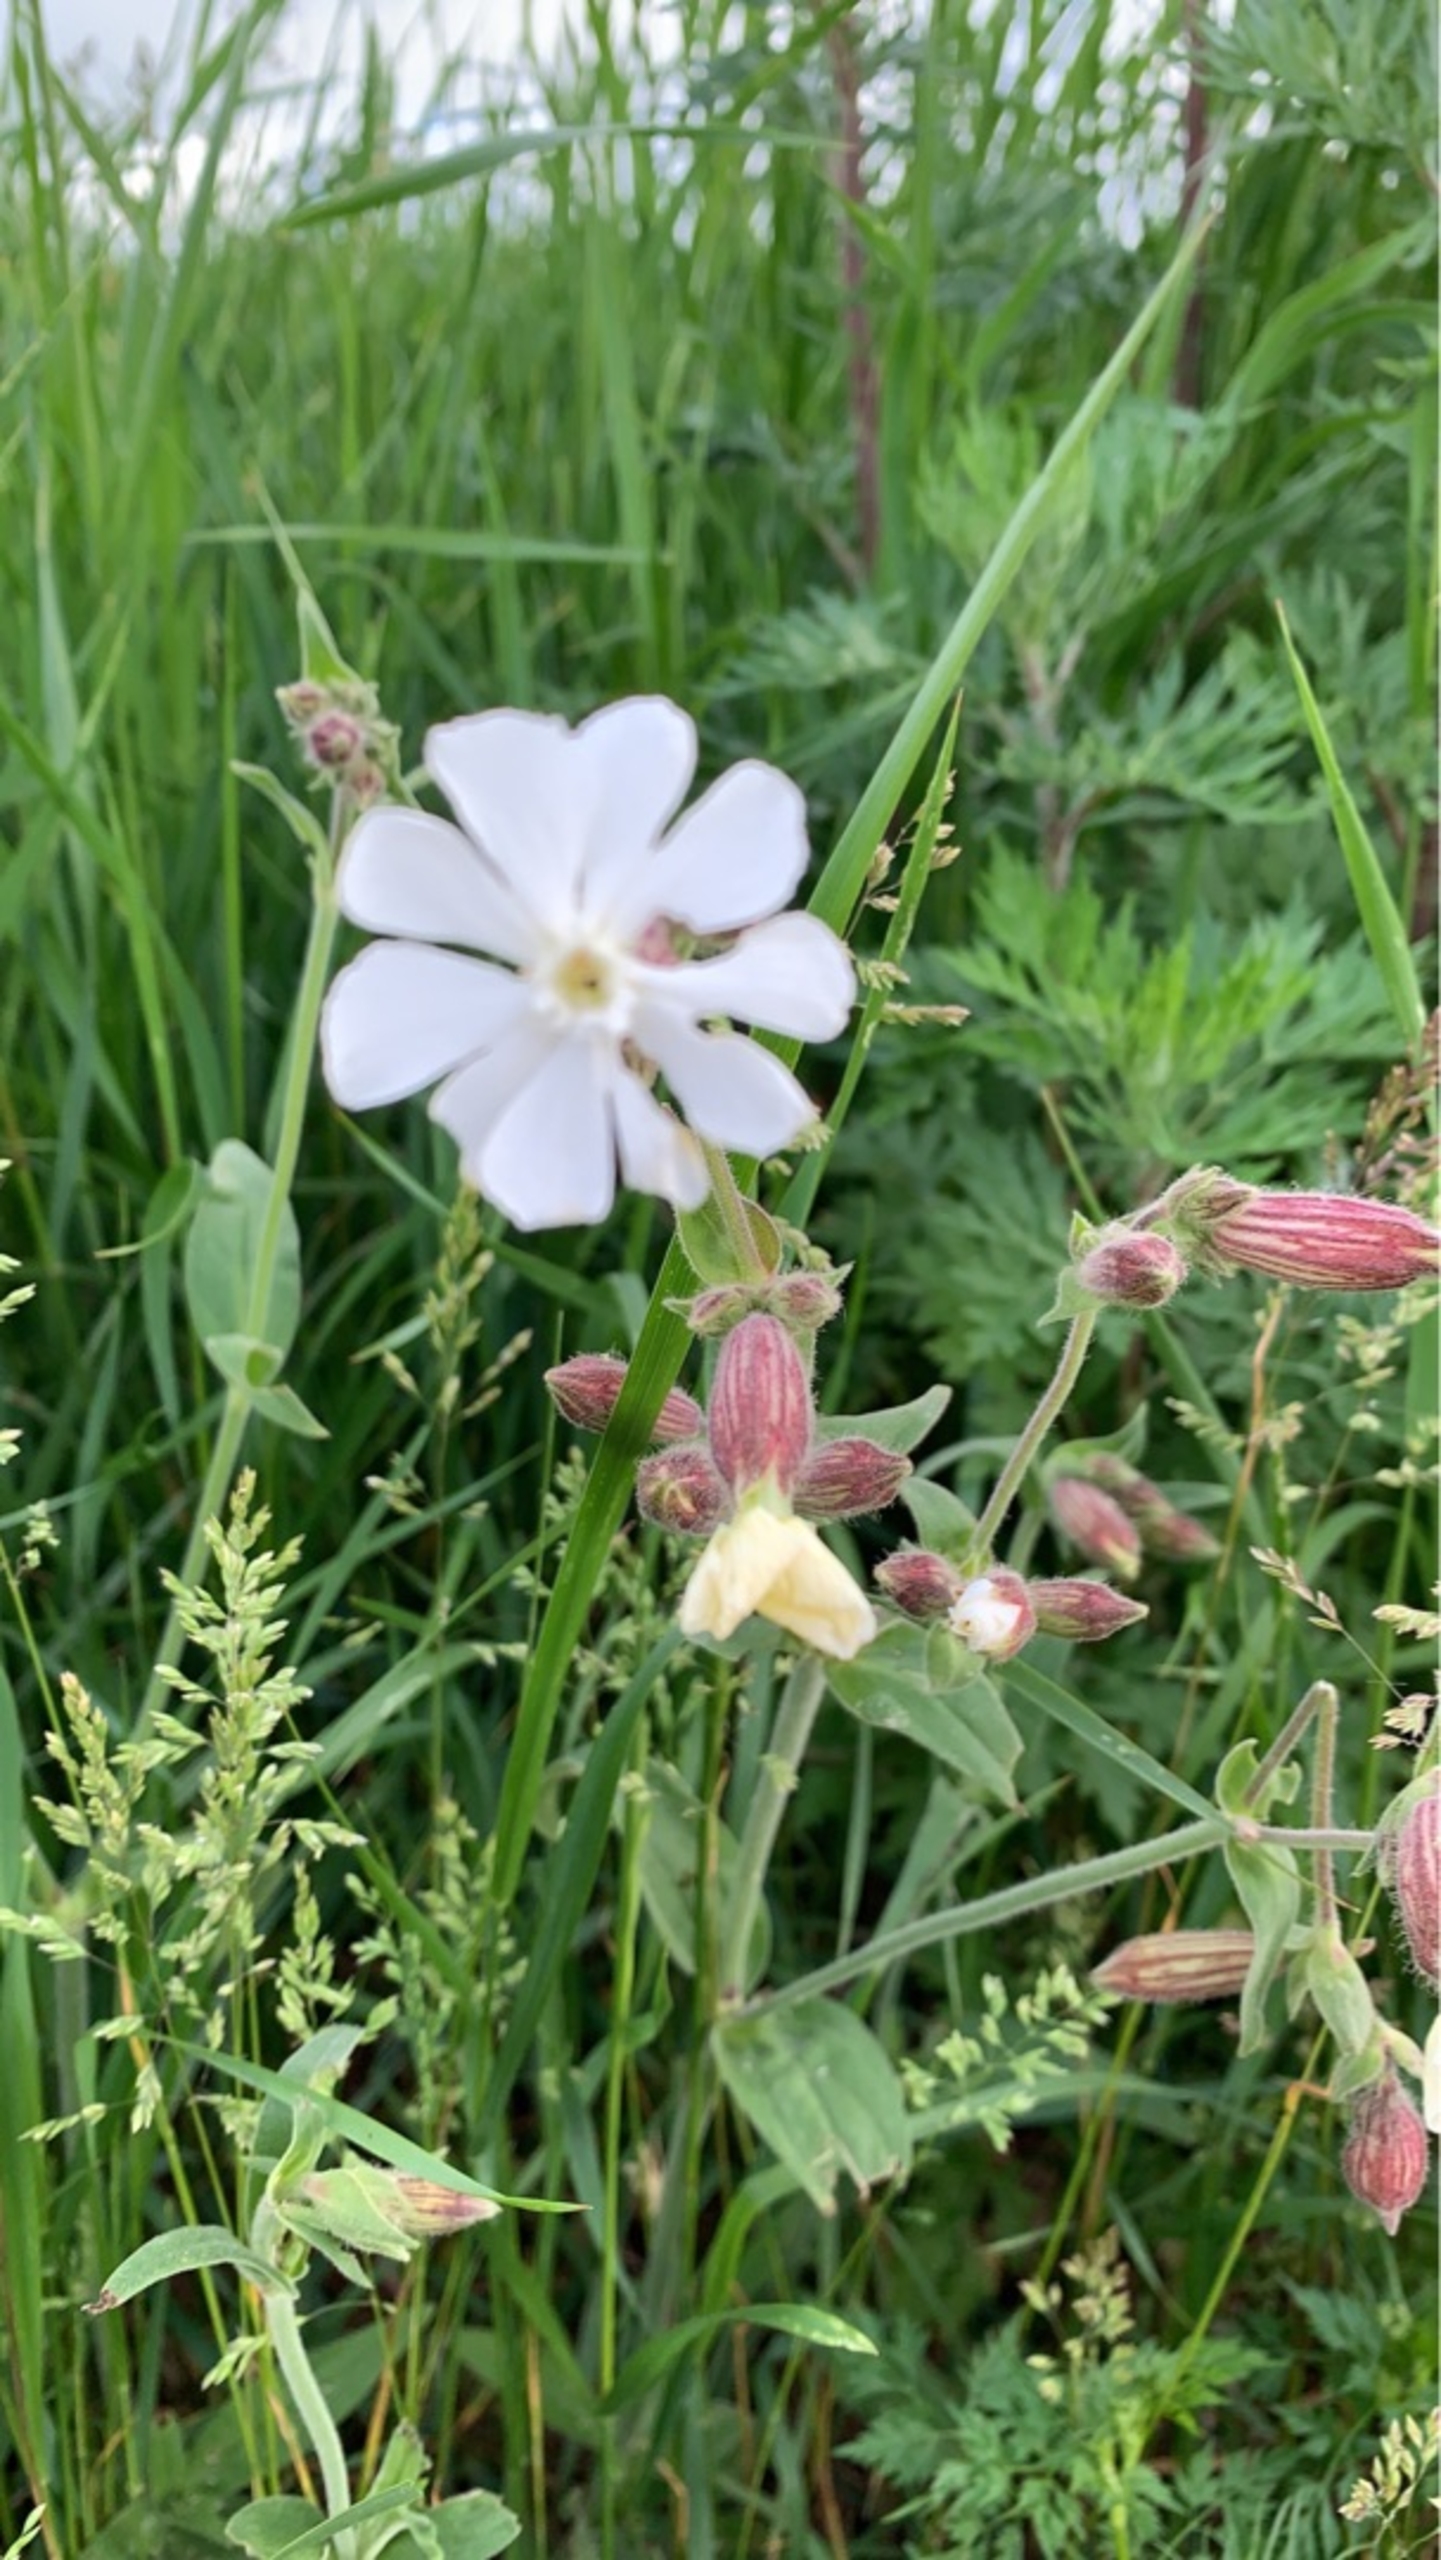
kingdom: Plantae
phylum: Tracheophyta
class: Magnoliopsida
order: Caryophyllales
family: Caryophyllaceae
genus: Silene
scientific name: Silene latifolia
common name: Aftenpragtstjerne
